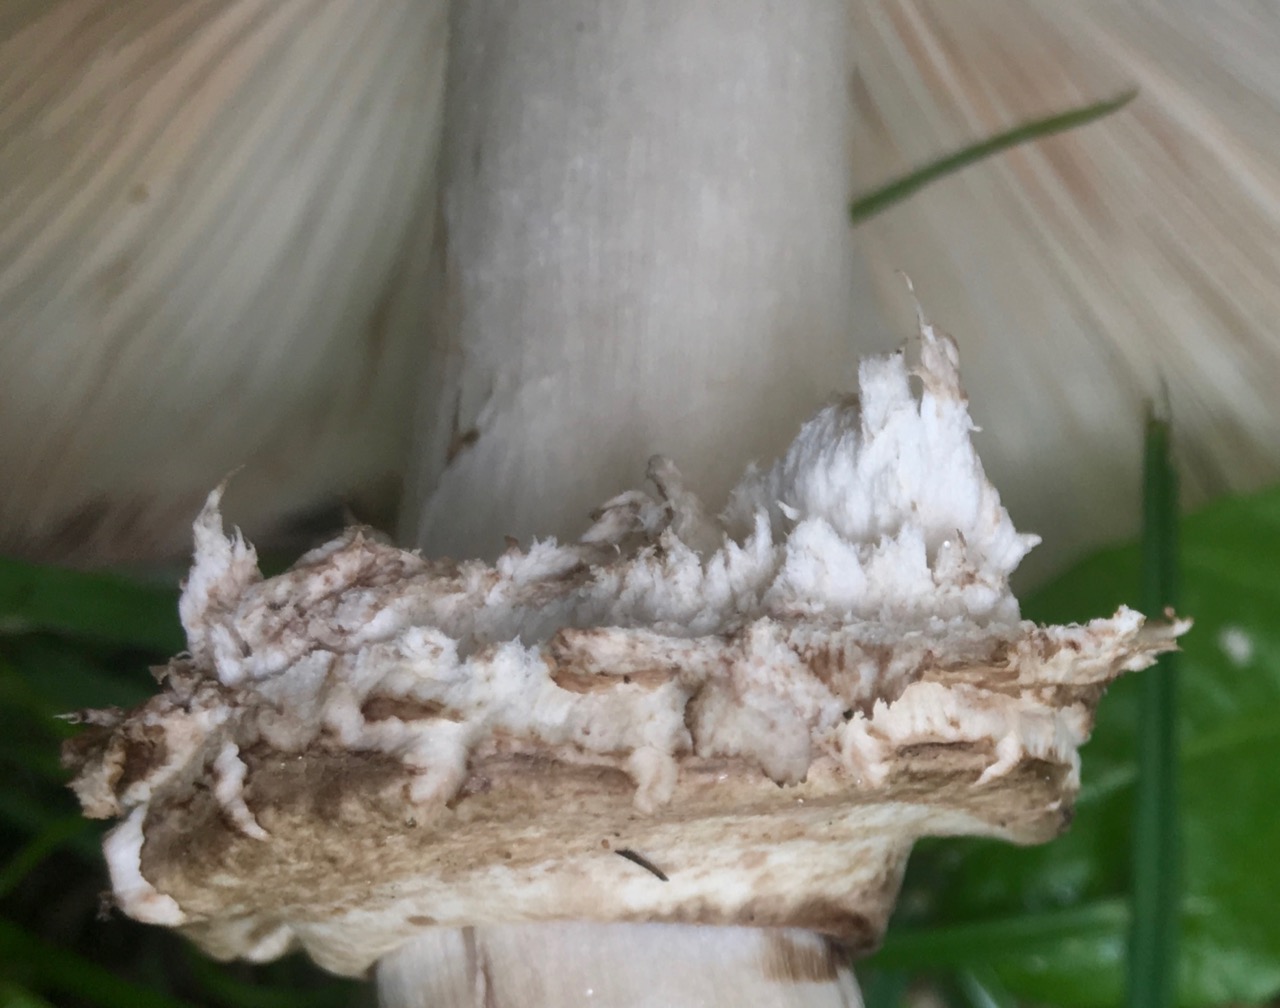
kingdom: Fungi
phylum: Basidiomycota
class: Agaricomycetes
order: Agaricales
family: Agaricaceae
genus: Chlorophyllum
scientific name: Chlorophyllum rhacodes
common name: ægte rabarberhat
